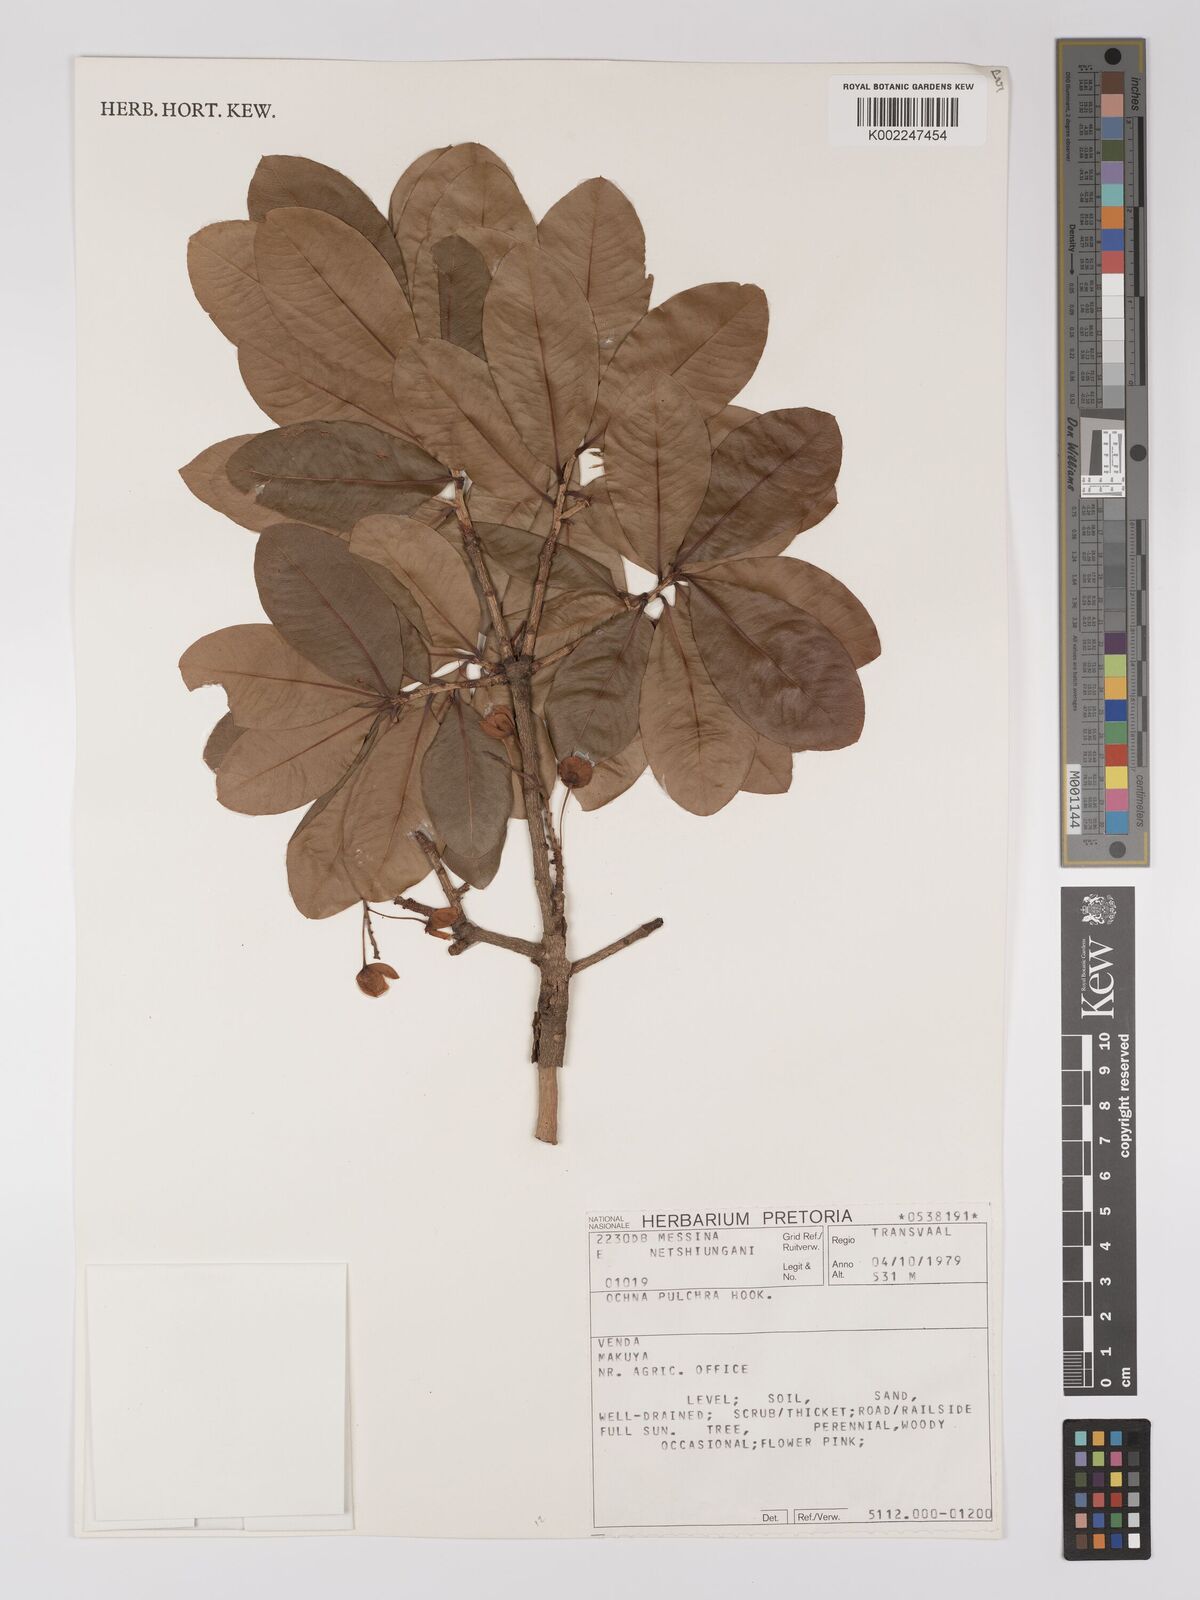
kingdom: Plantae
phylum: Tracheophyta
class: Magnoliopsida
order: Malpighiales
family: Ochnaceae
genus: Ochna
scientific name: Ochna pulchra
